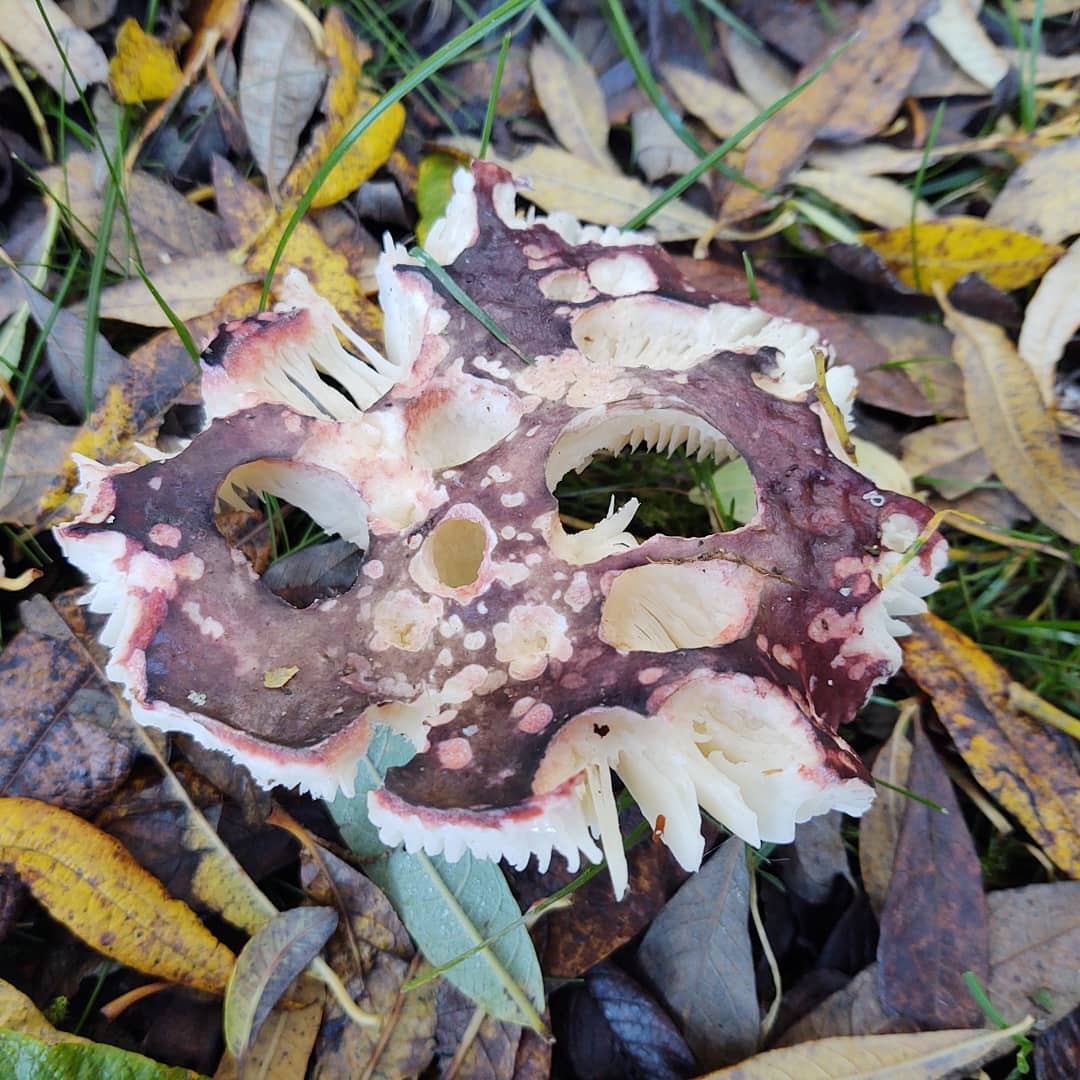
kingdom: Fungi
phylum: Basidiomycota
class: Agaricomycetes
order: Russulales
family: Russulaceae
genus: Russula
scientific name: Russula
